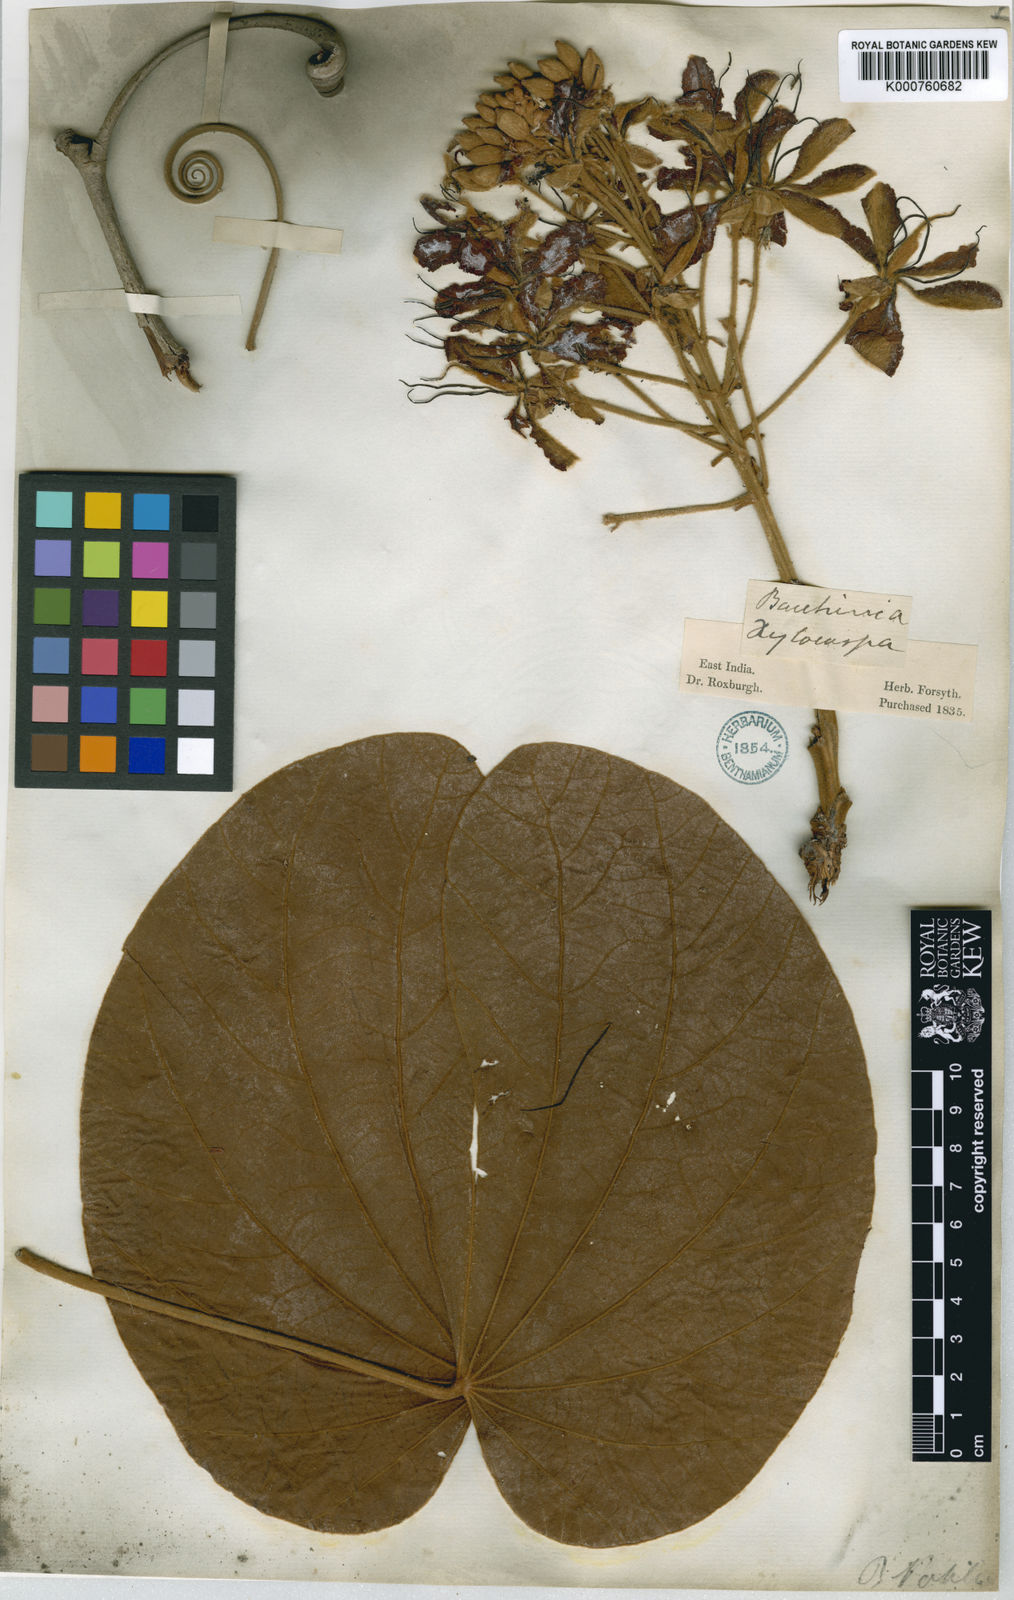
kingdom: Plantae
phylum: Tracheophyta
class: Magnoliopsida
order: Fabales
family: Fabaceae
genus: Phanera
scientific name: Phanera vahlii
